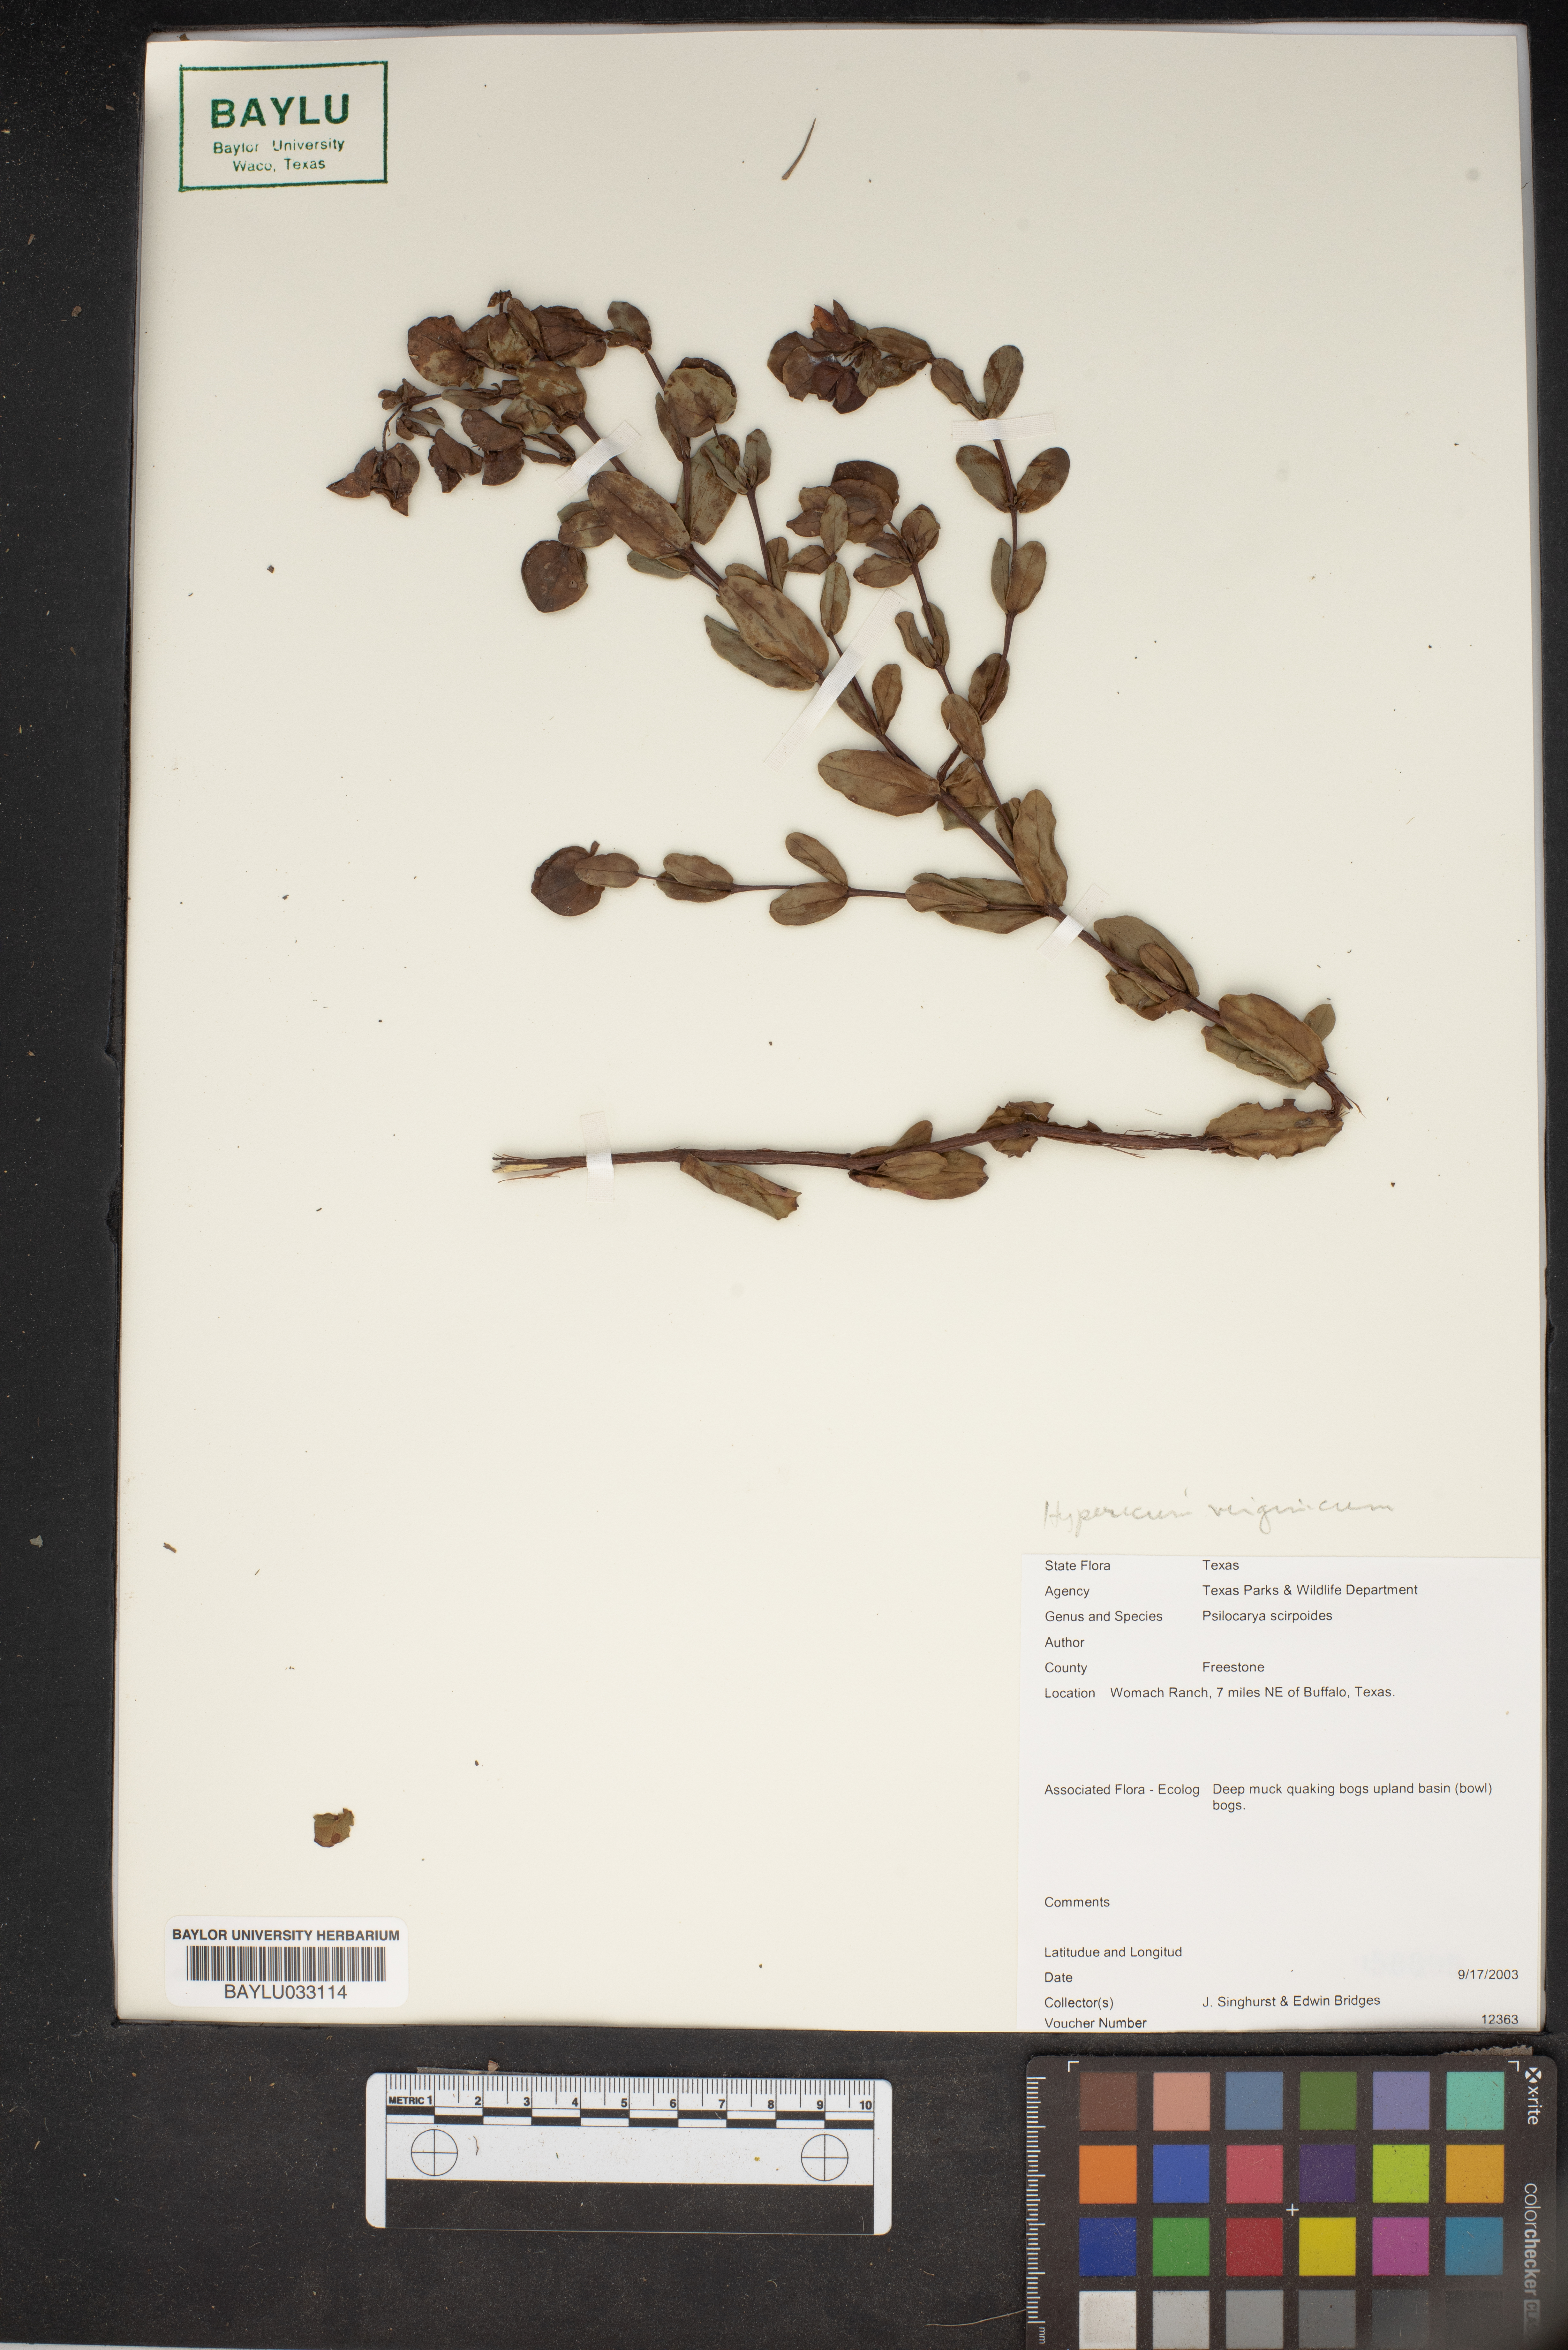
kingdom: Plantae
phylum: Tracheophyta
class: Liliopsida
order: Poales
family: Cyperaceae
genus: Rhynchospora
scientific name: Rhynchospora scirpoides
